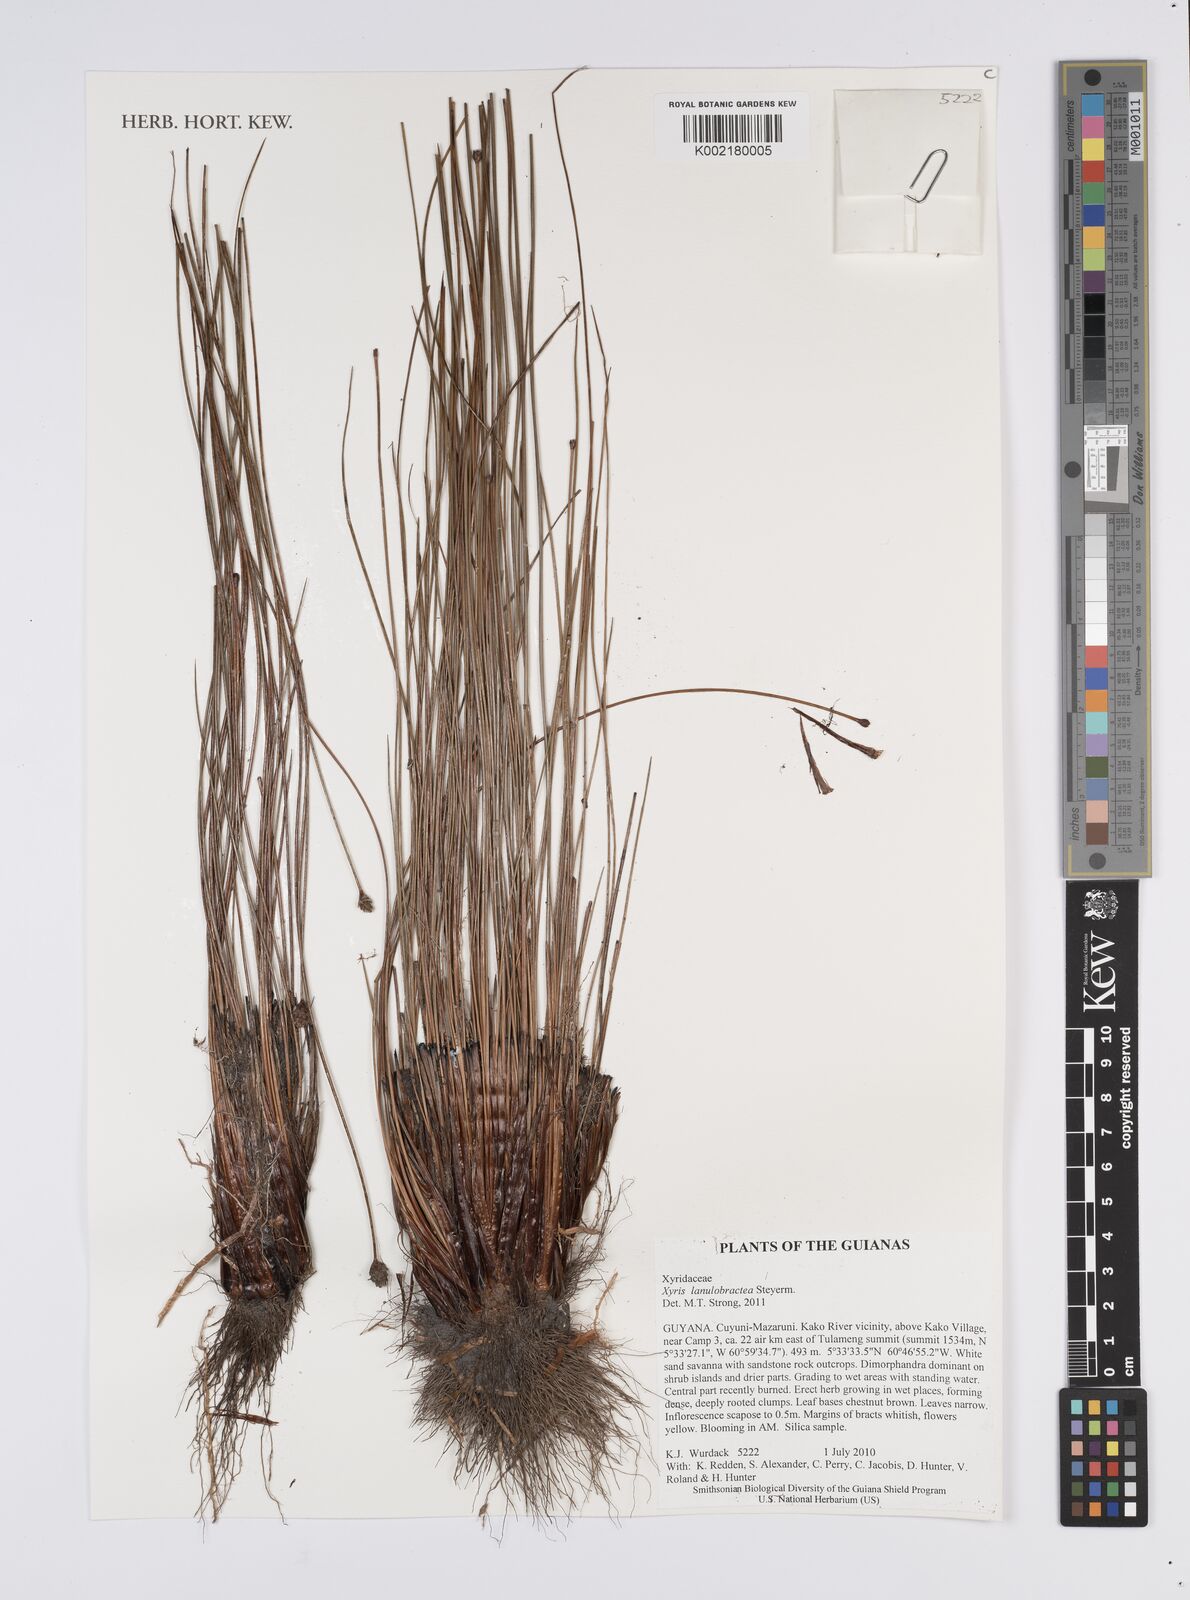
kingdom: Plantae
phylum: Tracheophyta
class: Liliopsida
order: Poales
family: Xyridaceae
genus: Xyris
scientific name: Xyris lanulobractea
